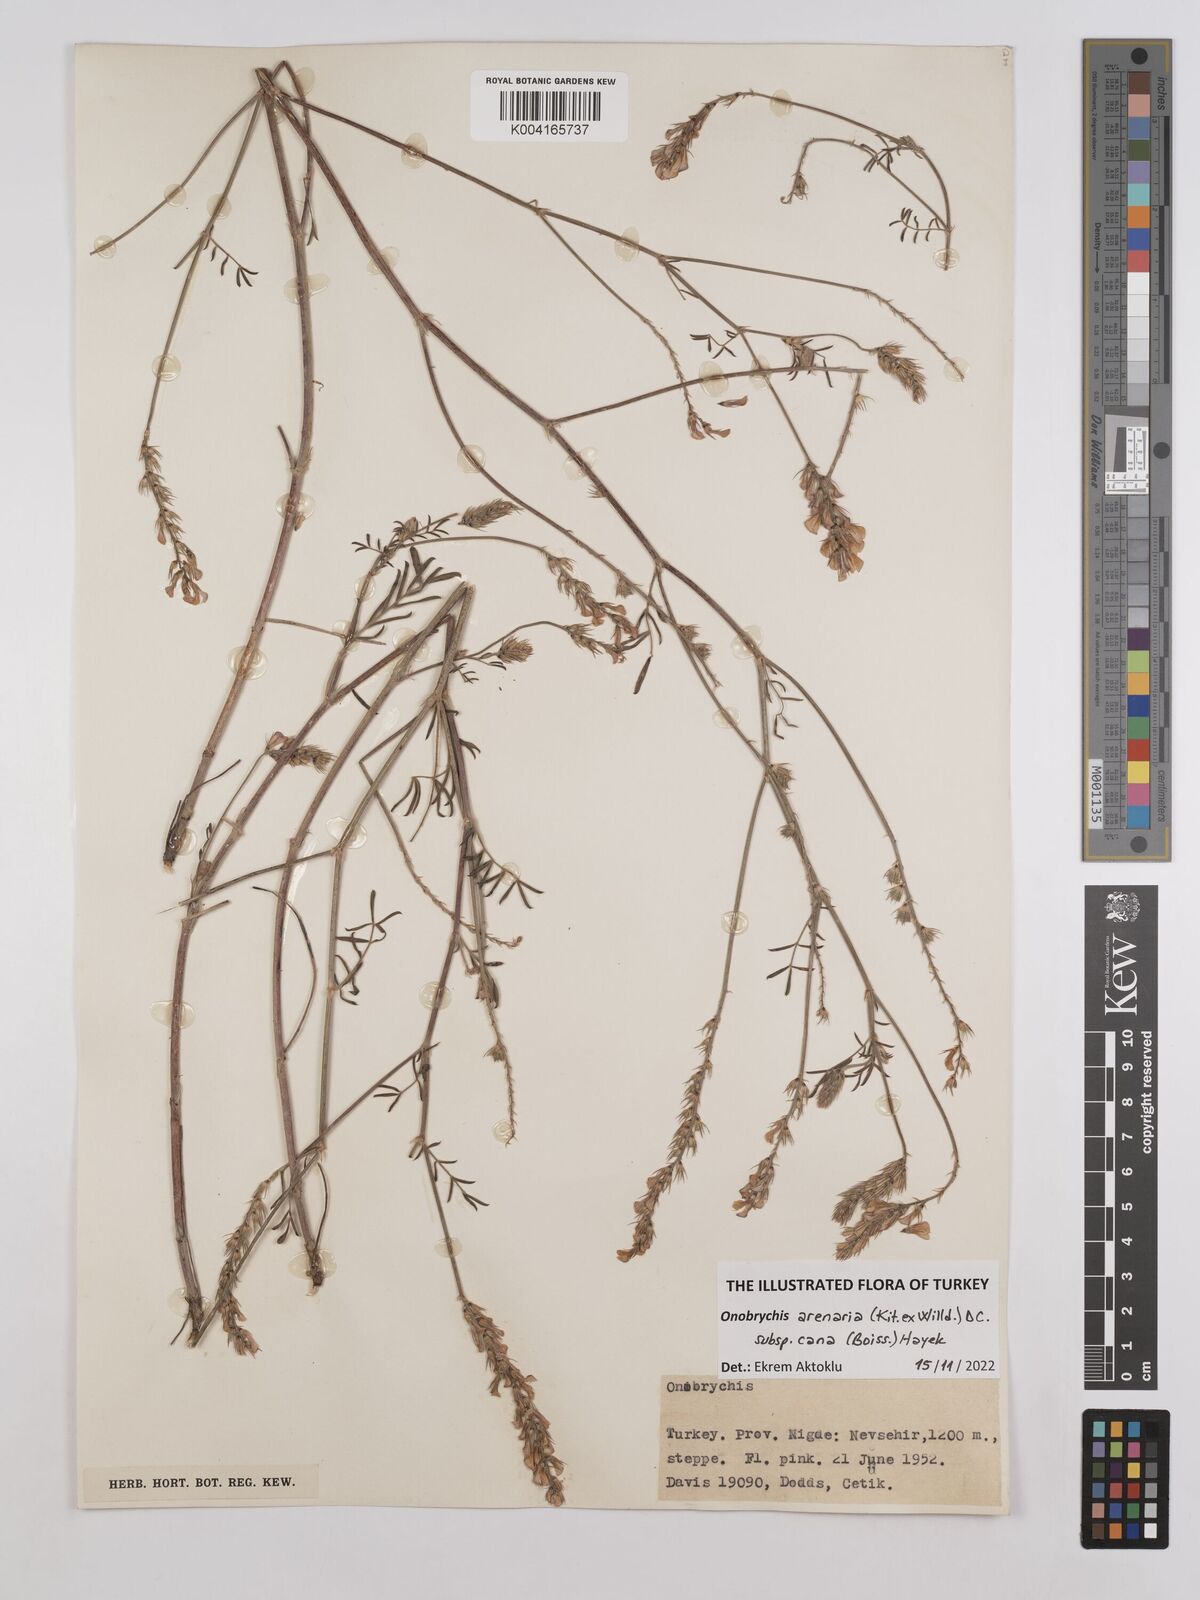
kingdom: Plantae
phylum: Tracheophyta
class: Magnoliopsida
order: Fabales
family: Fabaceae
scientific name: Fabaceae
